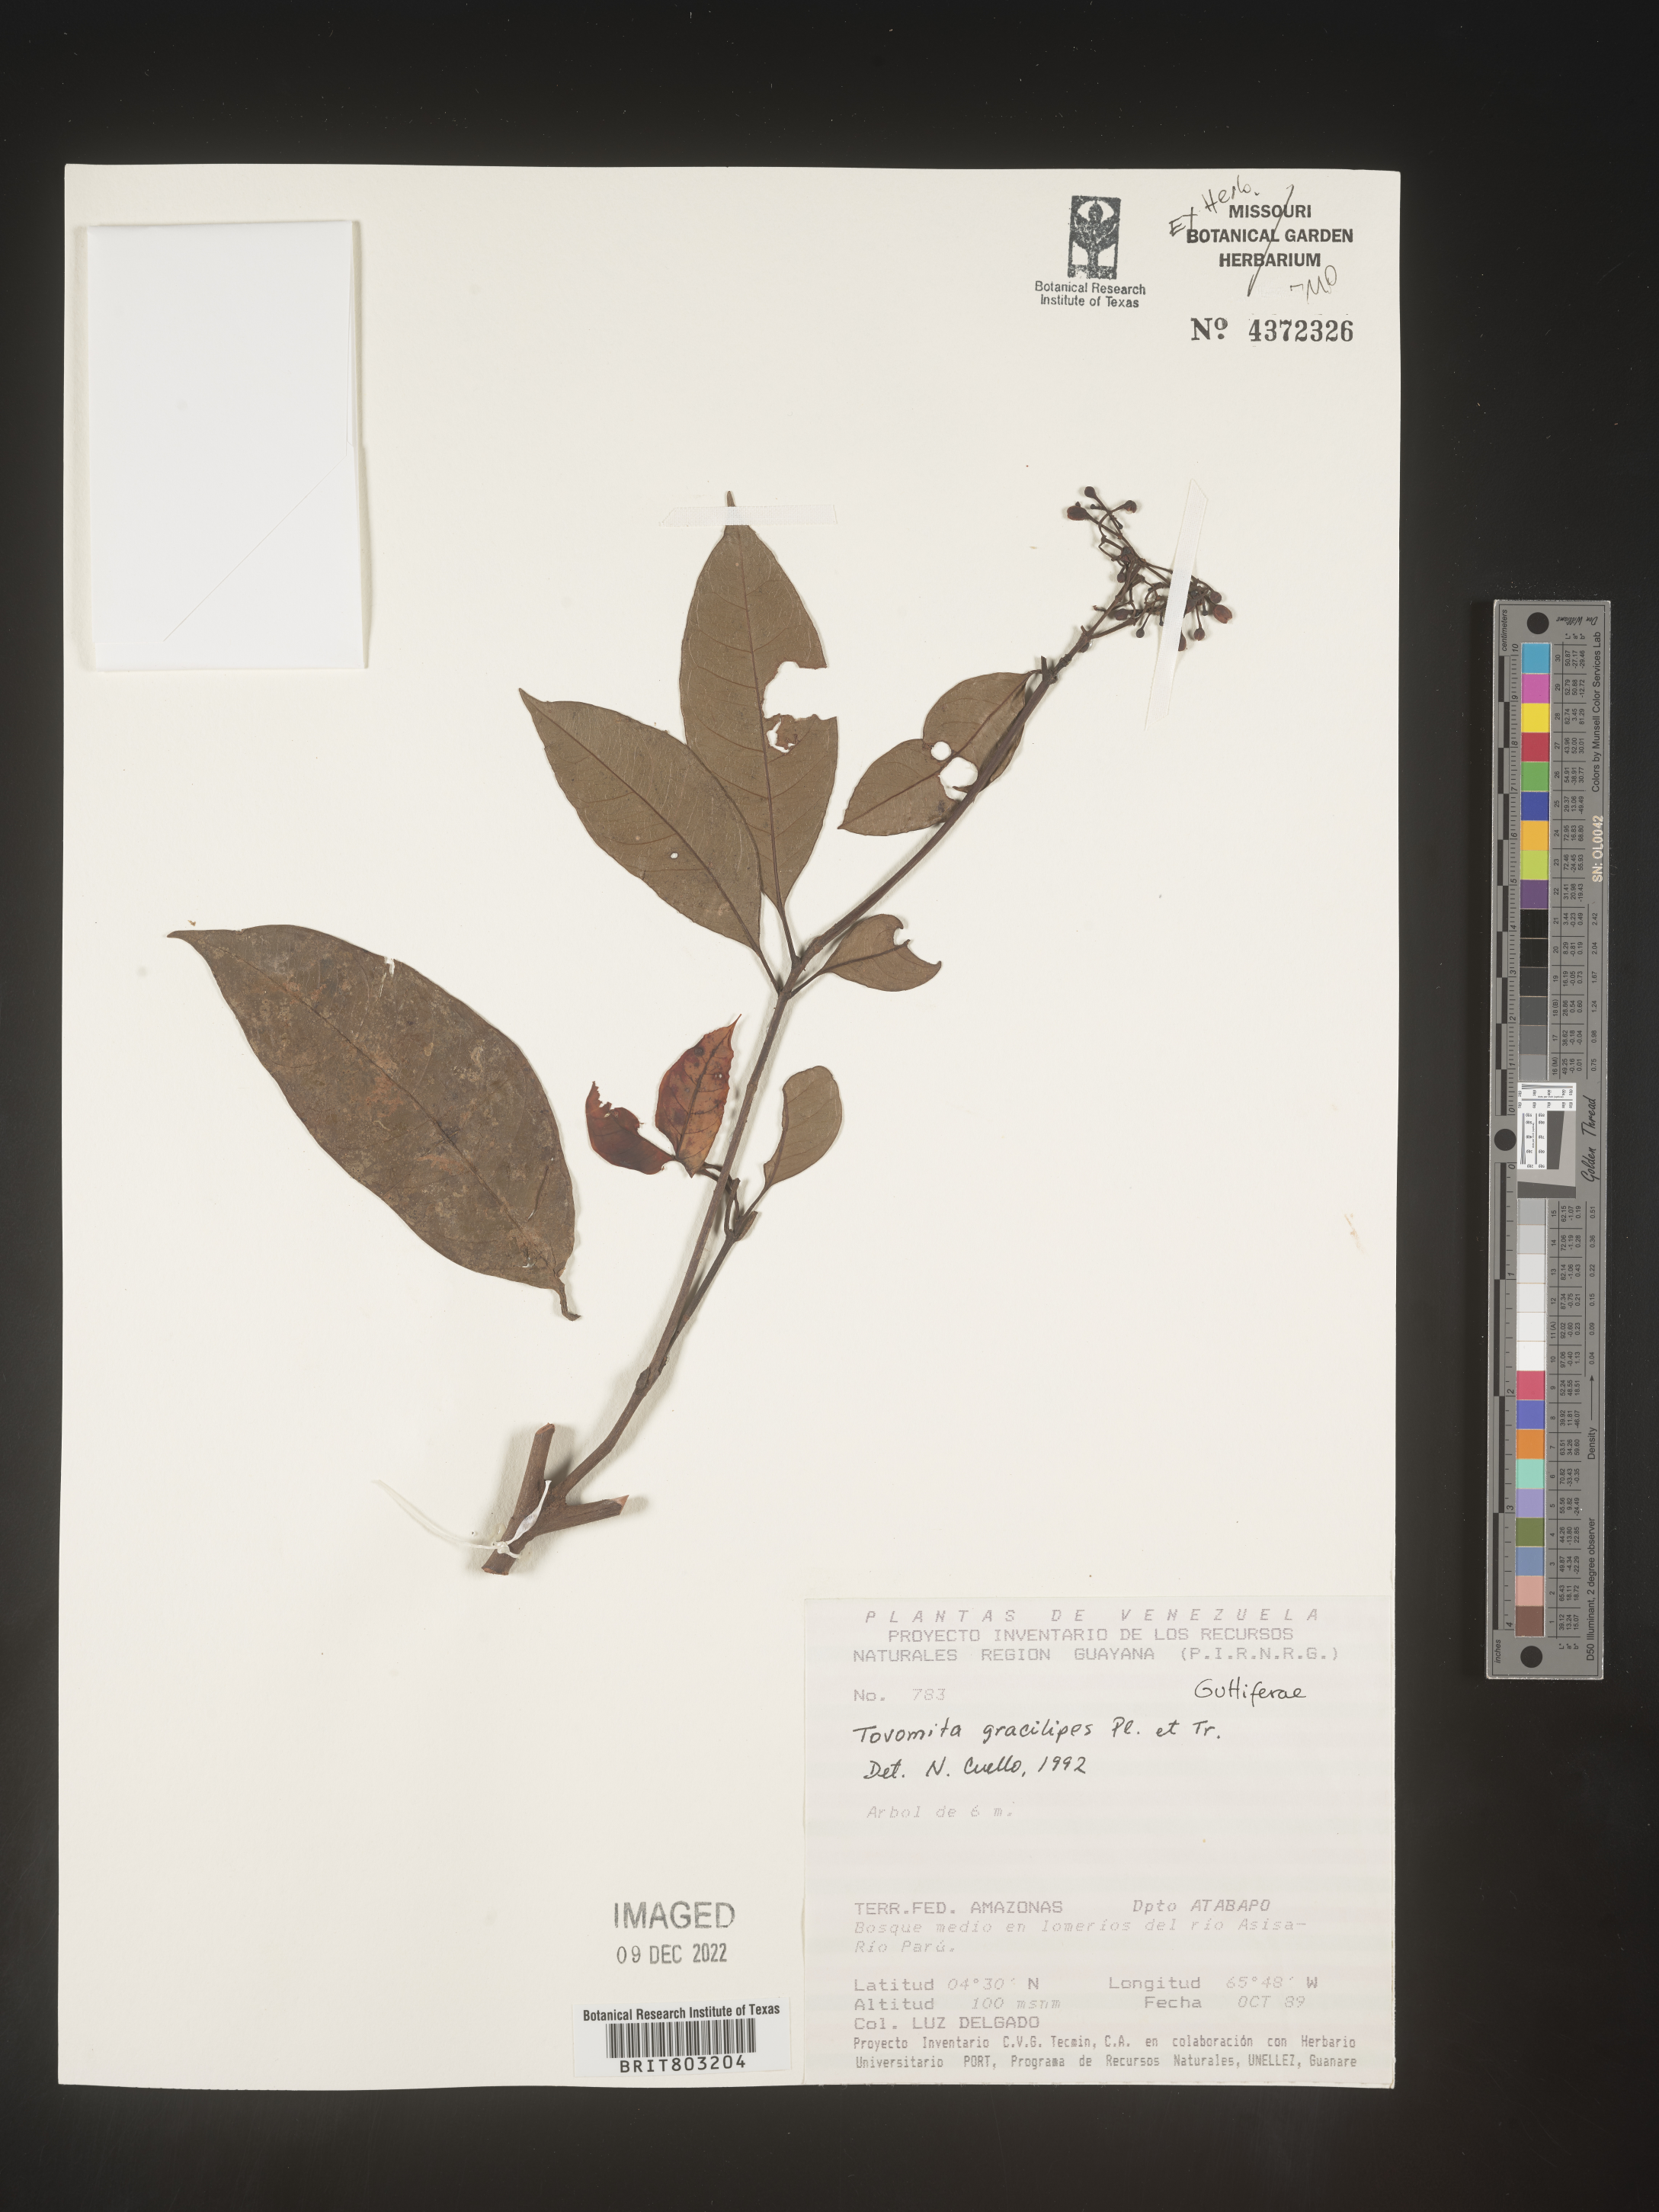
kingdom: Plantae
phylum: Tracheophyta
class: Magnoliopsida
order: Malpighiales
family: Clusiaceae
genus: Tovomita
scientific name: Tovomita
